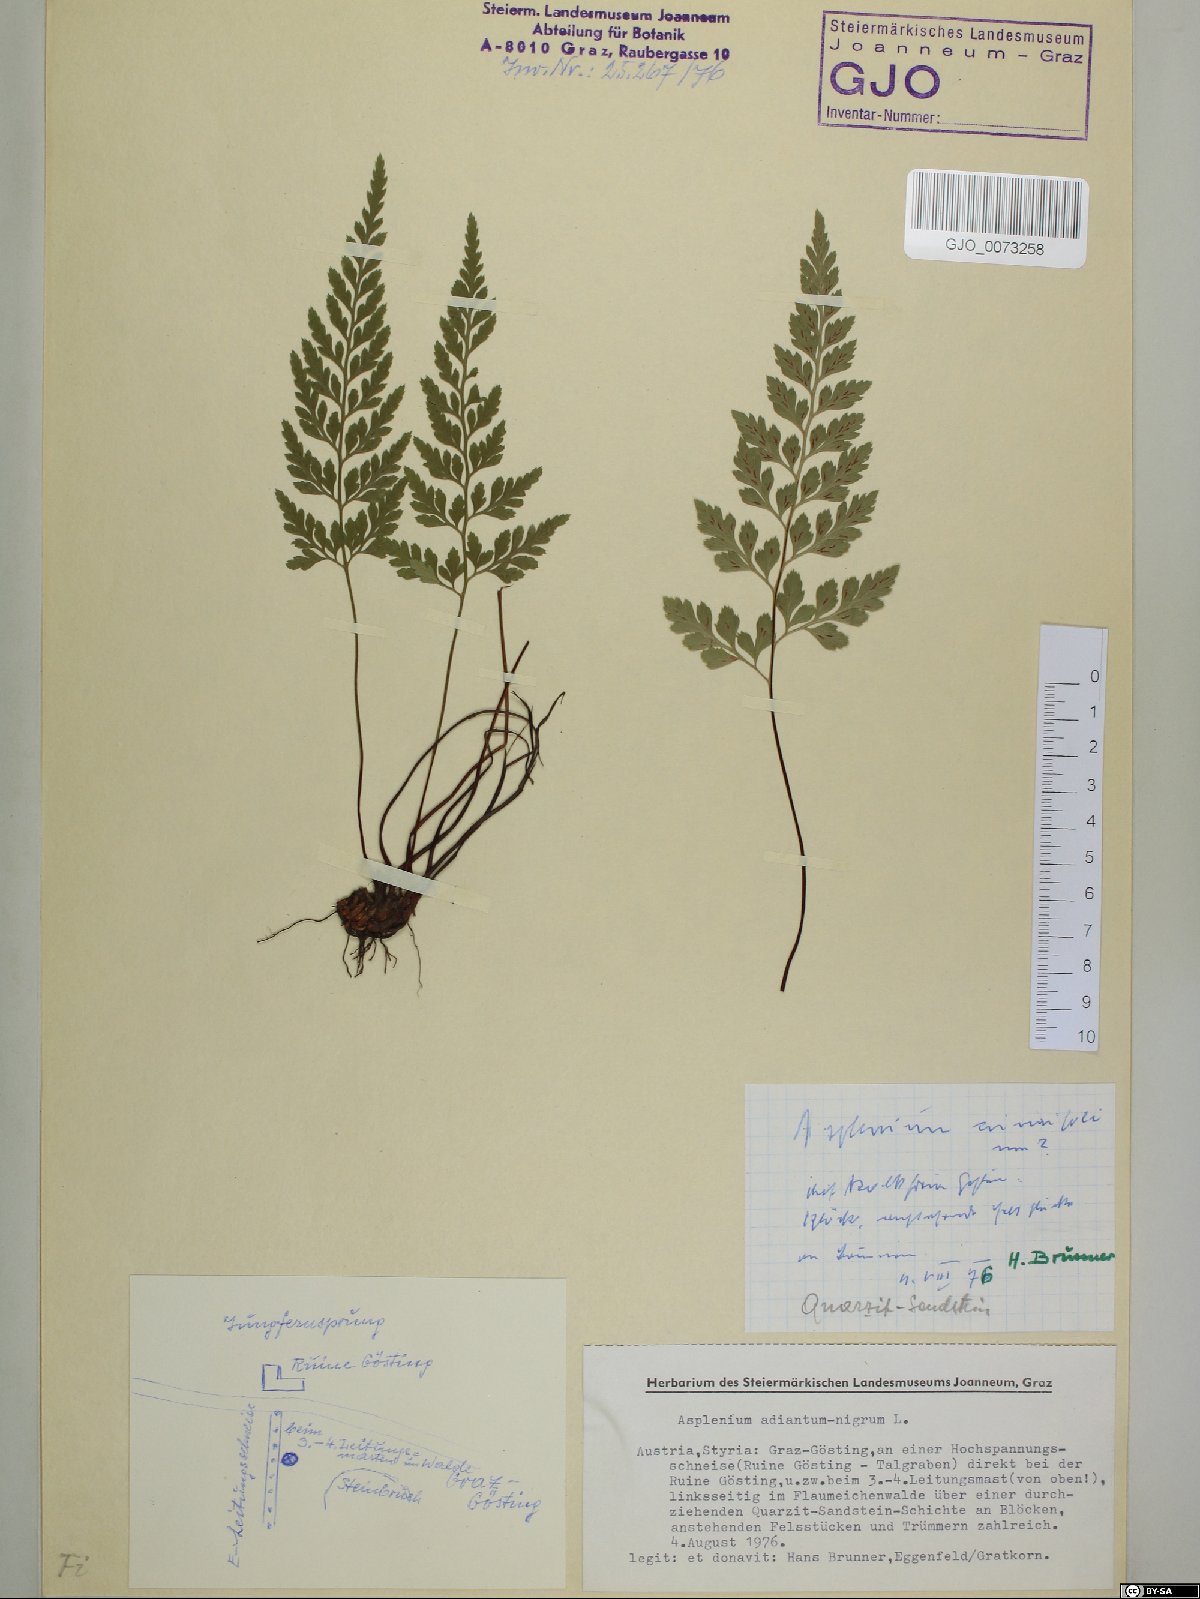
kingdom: Plantae
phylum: Tracheophyta
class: Polypodiopsida
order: Polypodiales
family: Aspleniaceae
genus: Asplenium
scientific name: Asplenium adiantum-nigrum
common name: Black spleenwort
